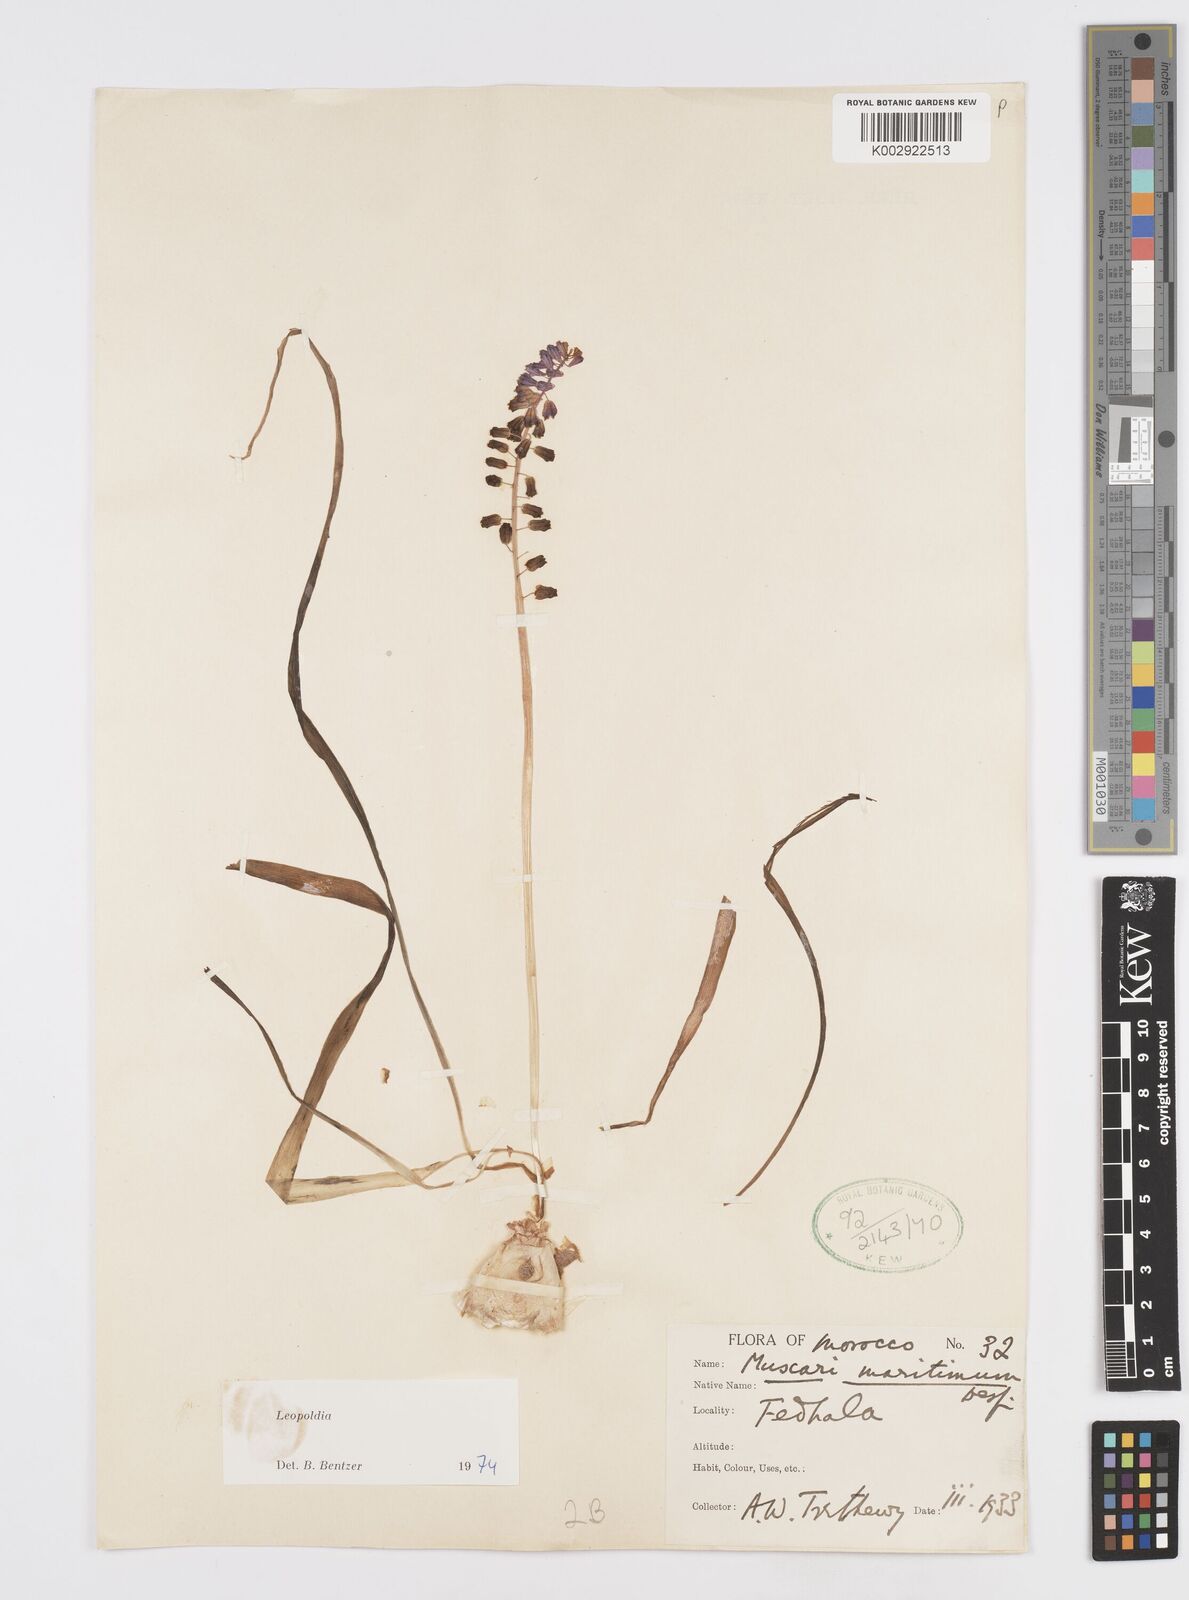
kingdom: Animalia
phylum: Mollusca
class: Cephalopoda
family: Neocomitidae
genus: Leopoldia
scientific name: Leopoldia
